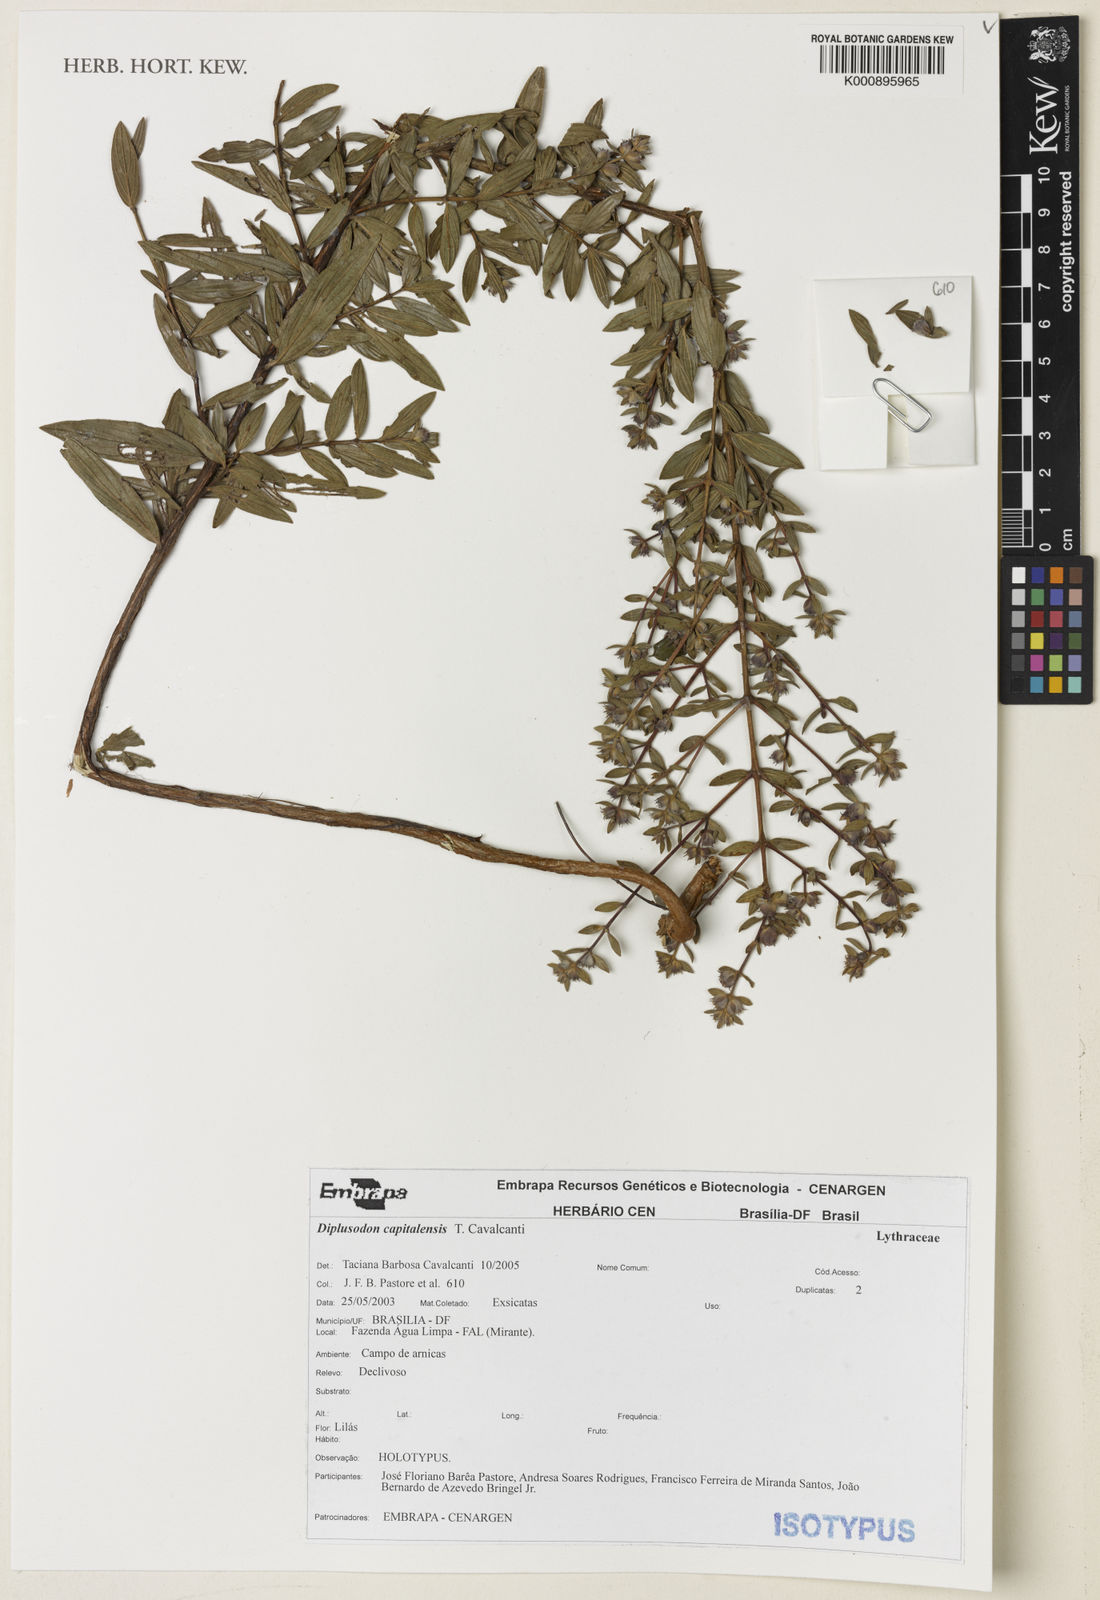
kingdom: Plantae
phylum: Tracheophyta
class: Magnoliopsida
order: Myrtales
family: Lythraceae
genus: Diplusodon
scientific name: Diplusodon capitalensis
